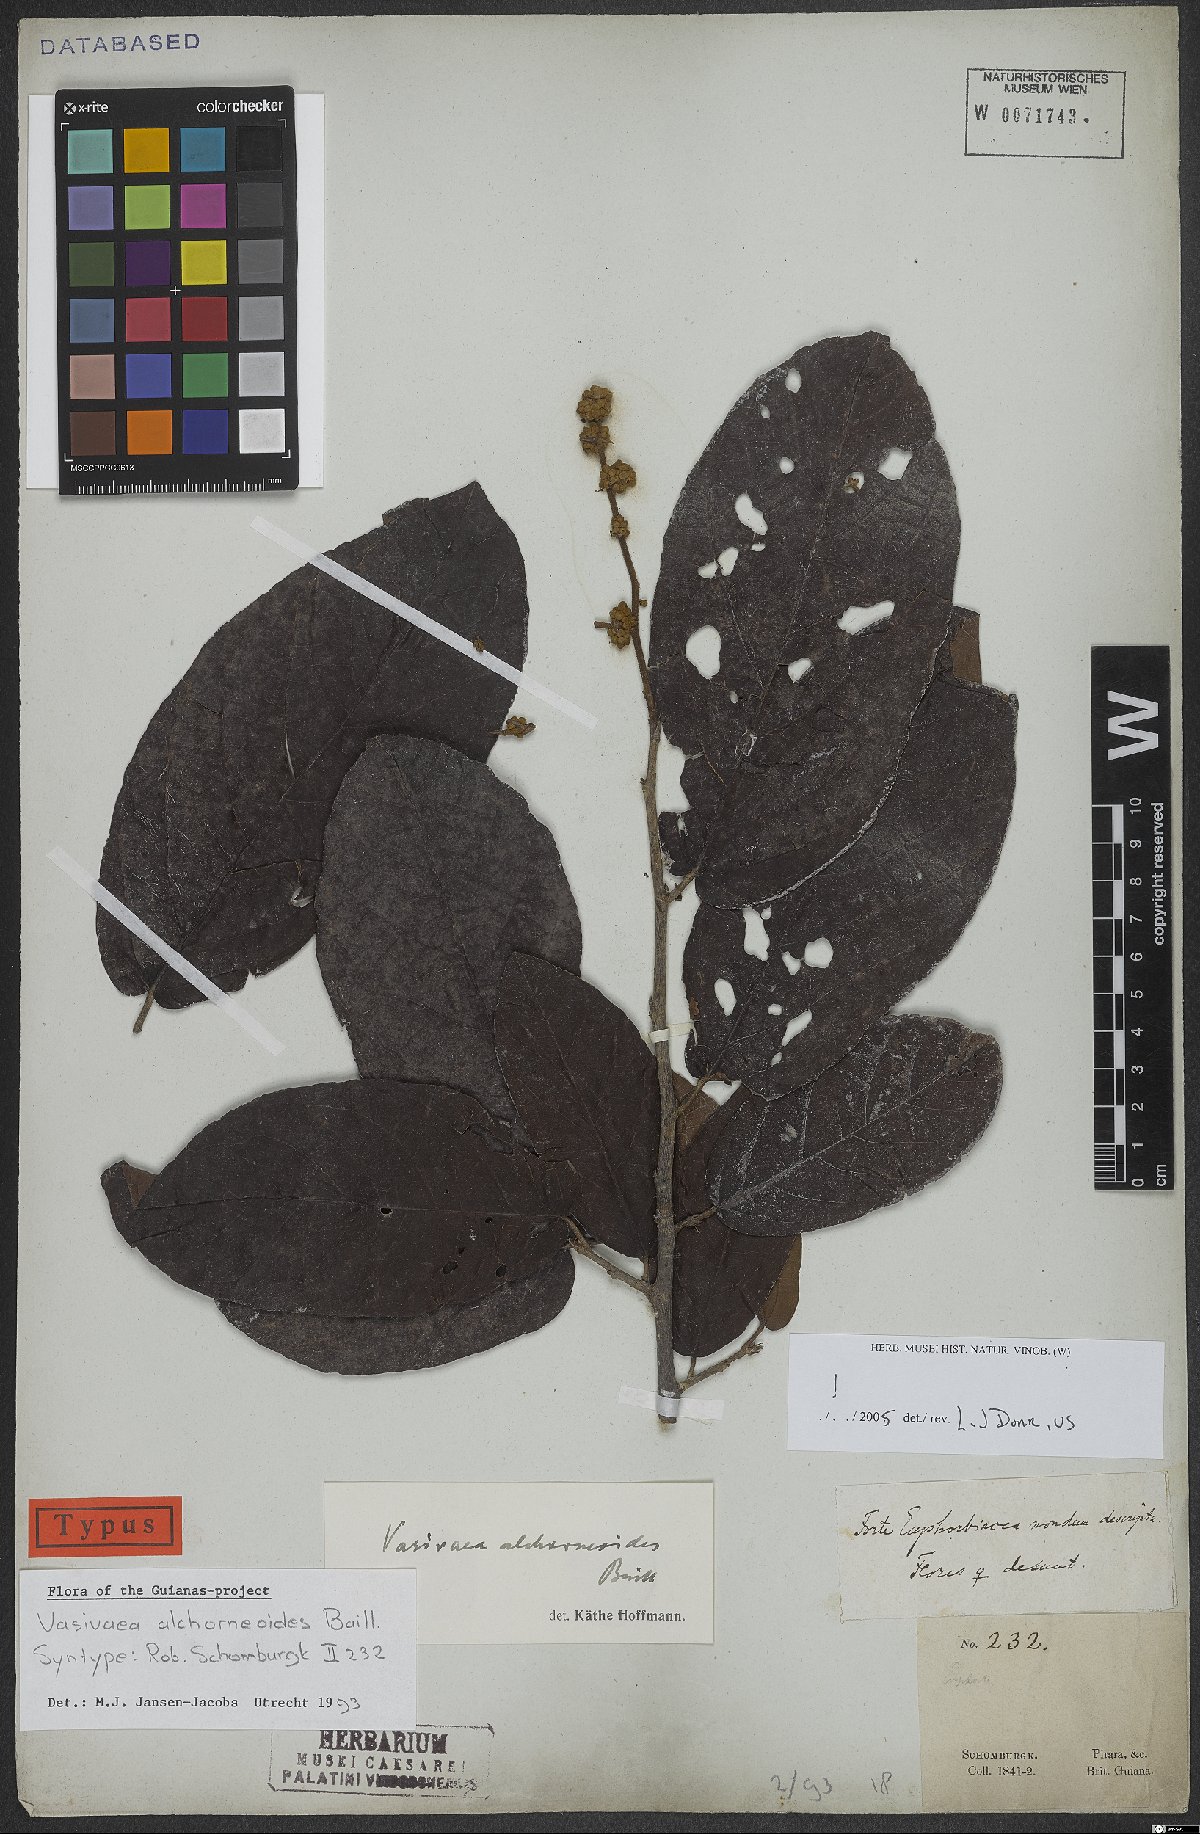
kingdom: Plantae
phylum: Tracheophyta
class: Magnoliopsida
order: Malvales
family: Malvaceae
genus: Vasivaea
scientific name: Vasivaea alchorneoides
